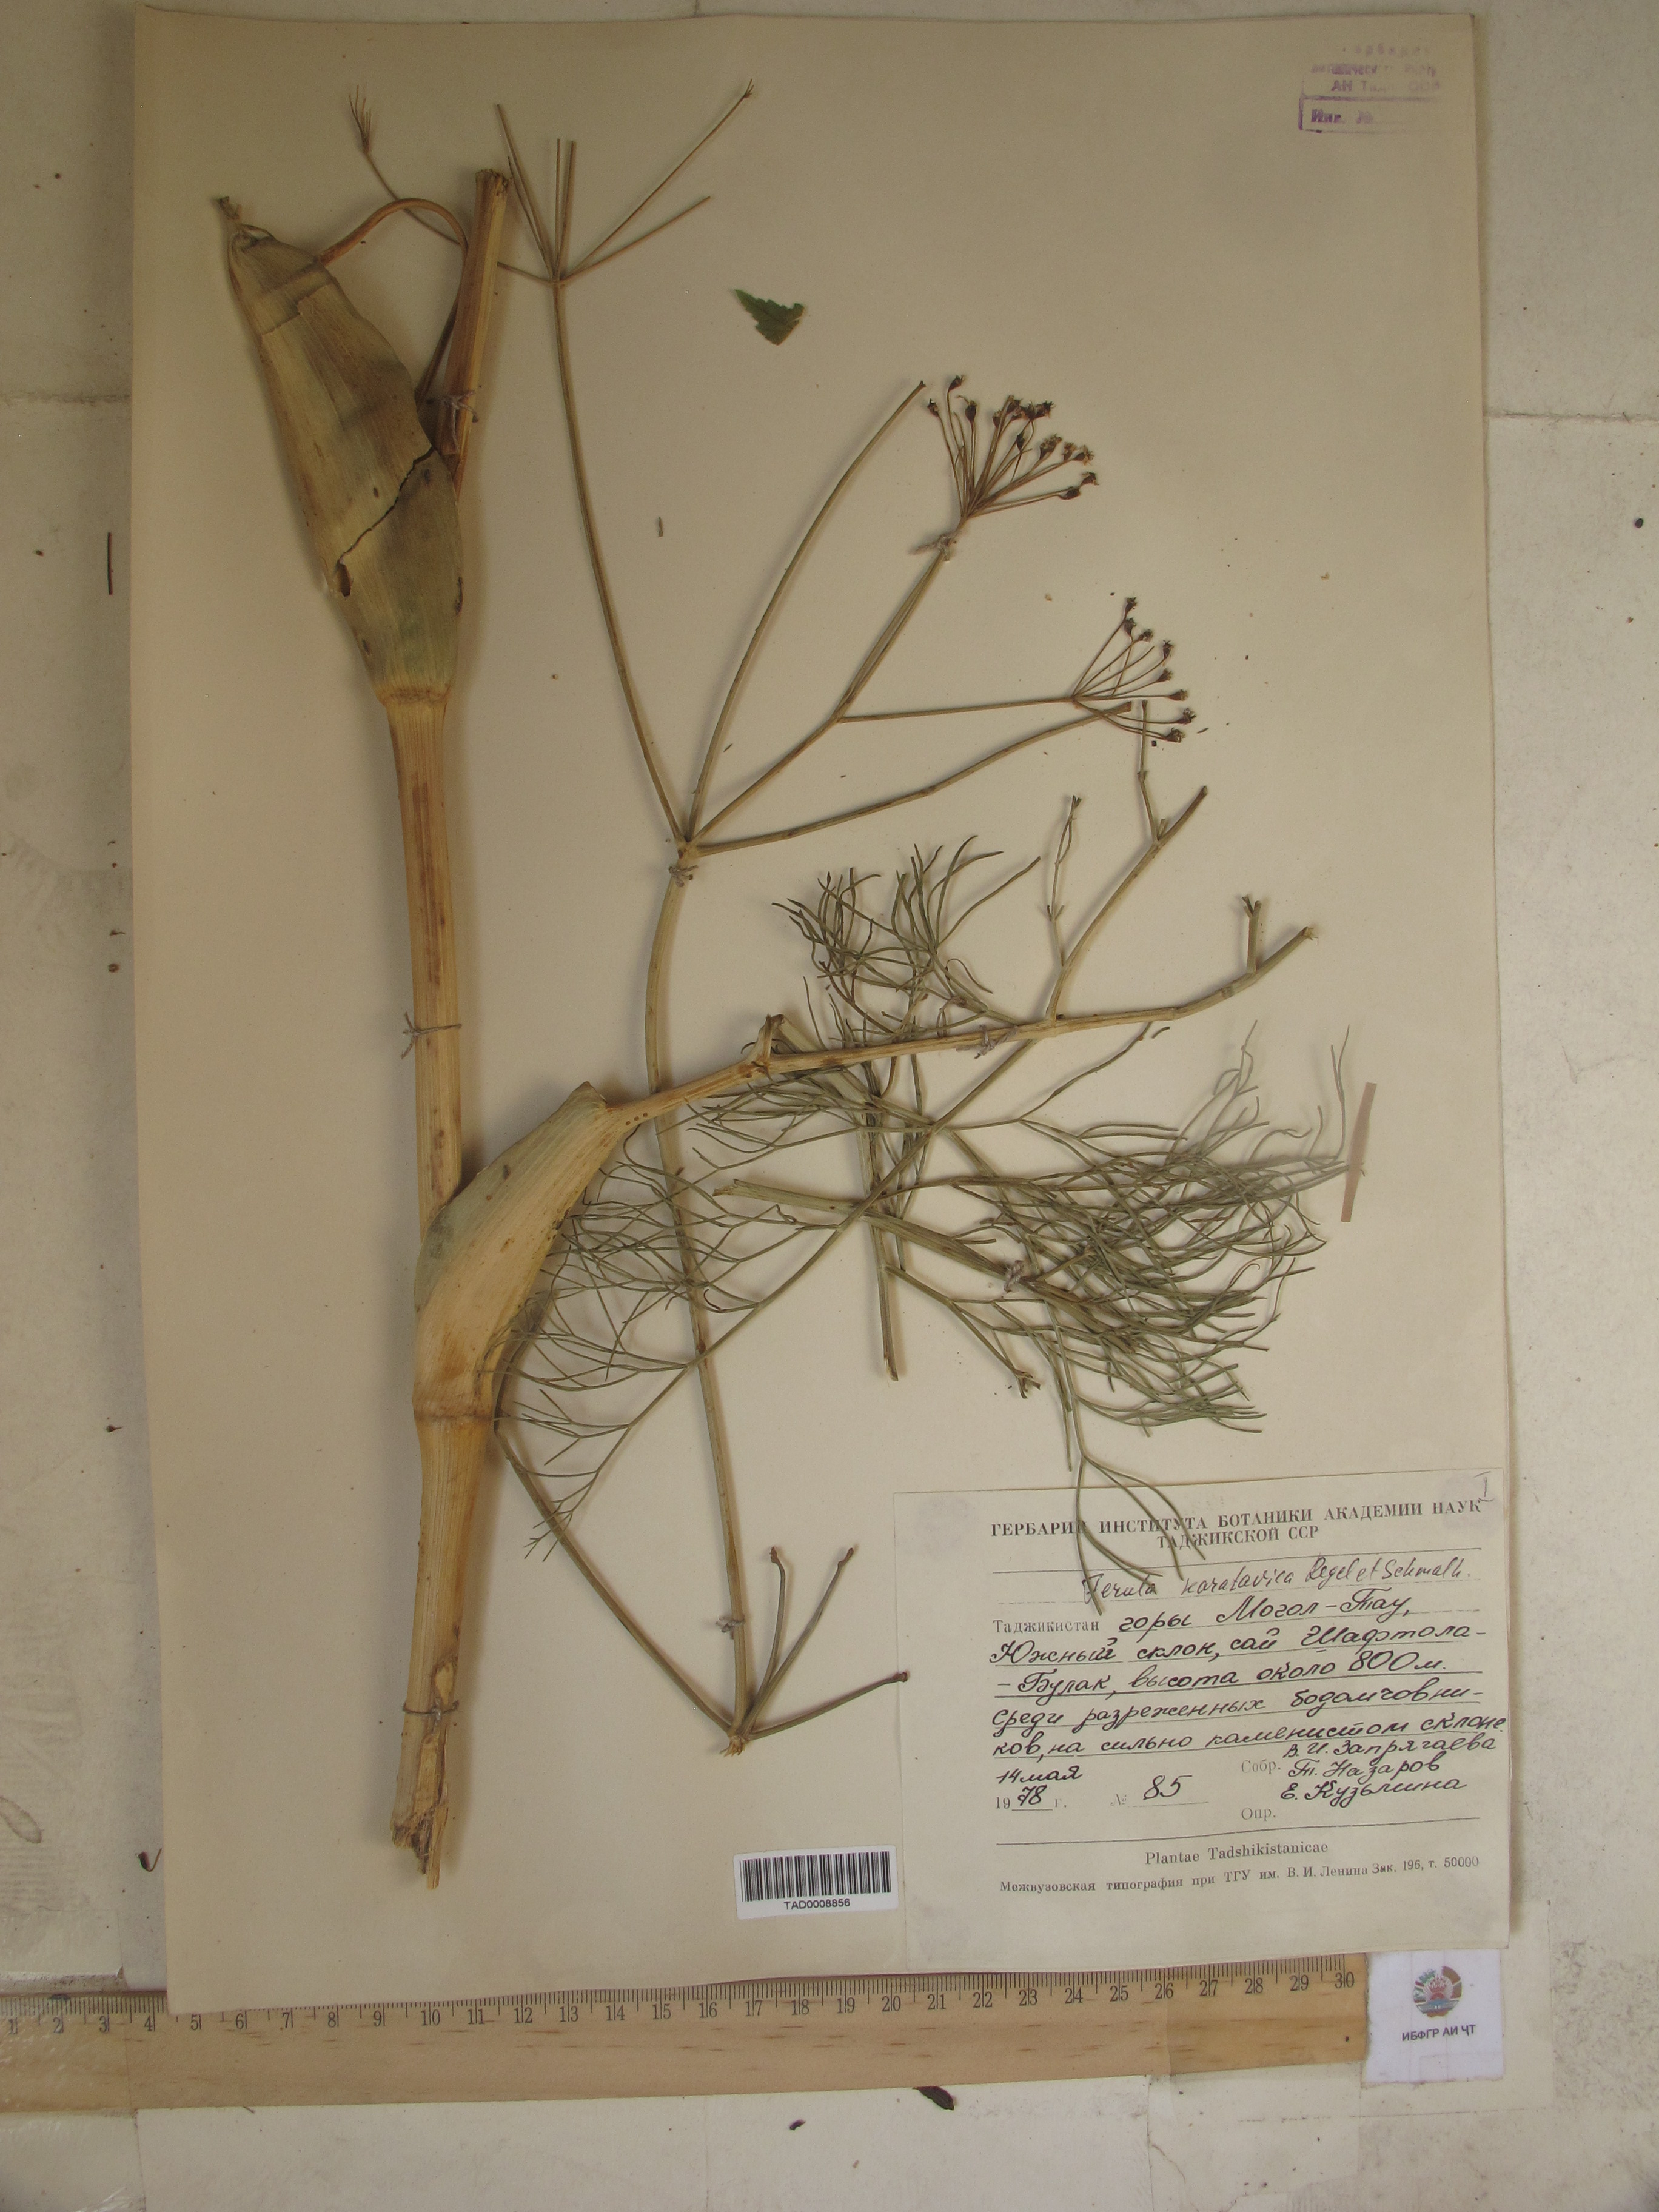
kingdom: Plantae
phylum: Tracheophyta
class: Magnoliopsida
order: Apiales
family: Apiaceae
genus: Ferula
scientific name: Ferula karatavica
